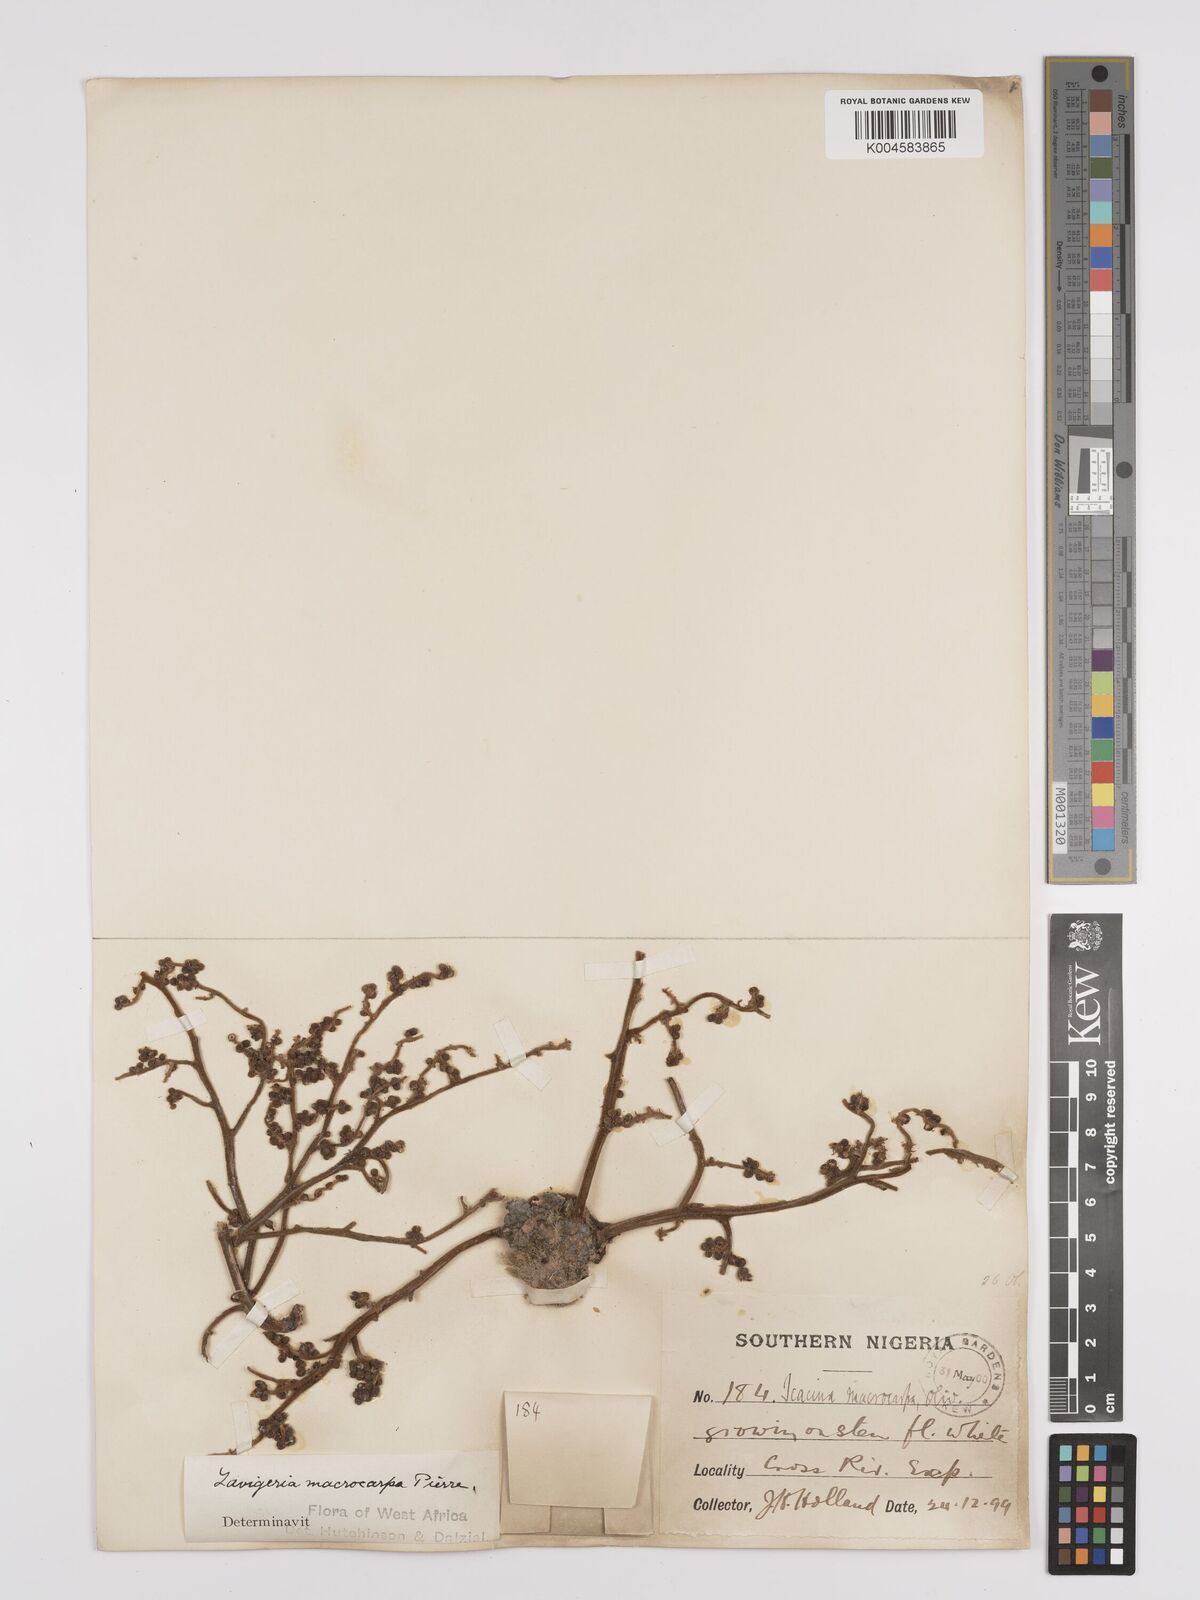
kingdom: Plantae
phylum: Tracheophyta
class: Magnoliopsida
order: Icacinales
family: Icacinaceae
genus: Lavigeria
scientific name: Lavigeria macrocarpa
